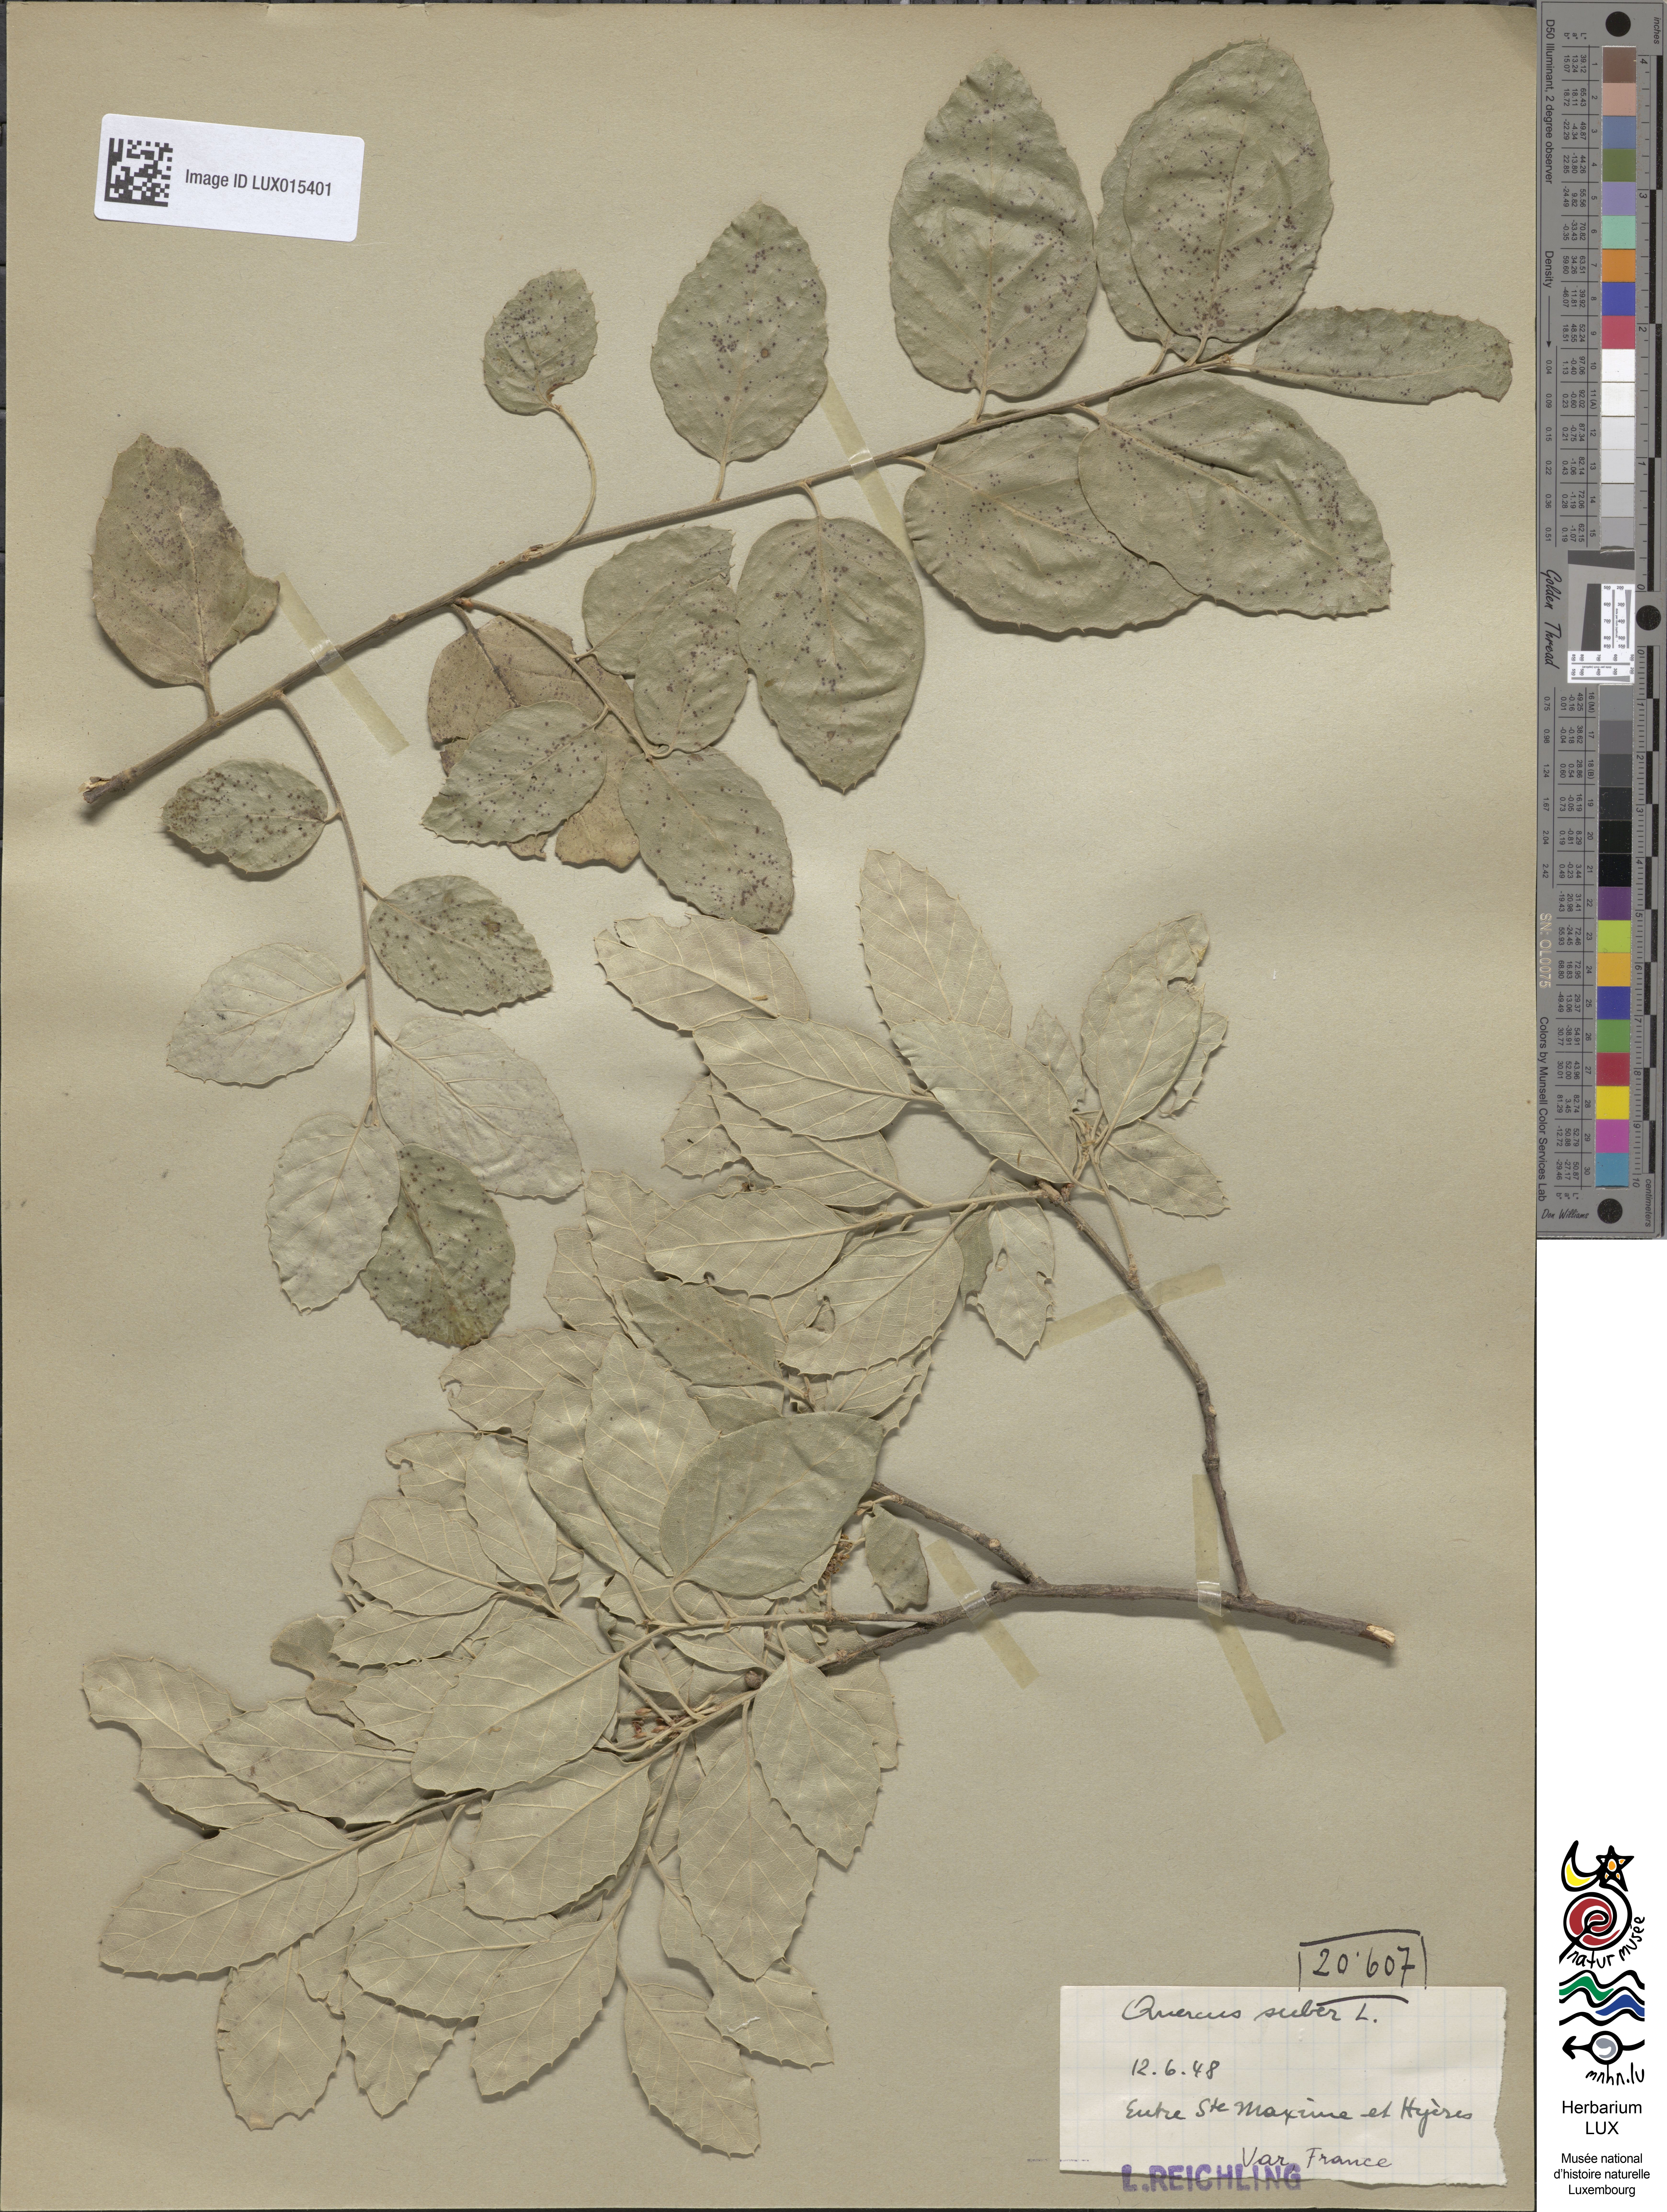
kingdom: Plantae
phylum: Tracheophyta
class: Magnoliopsida
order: Fagales
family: Fagaceae
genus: Quercus
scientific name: Quercus suber
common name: Cork oak
